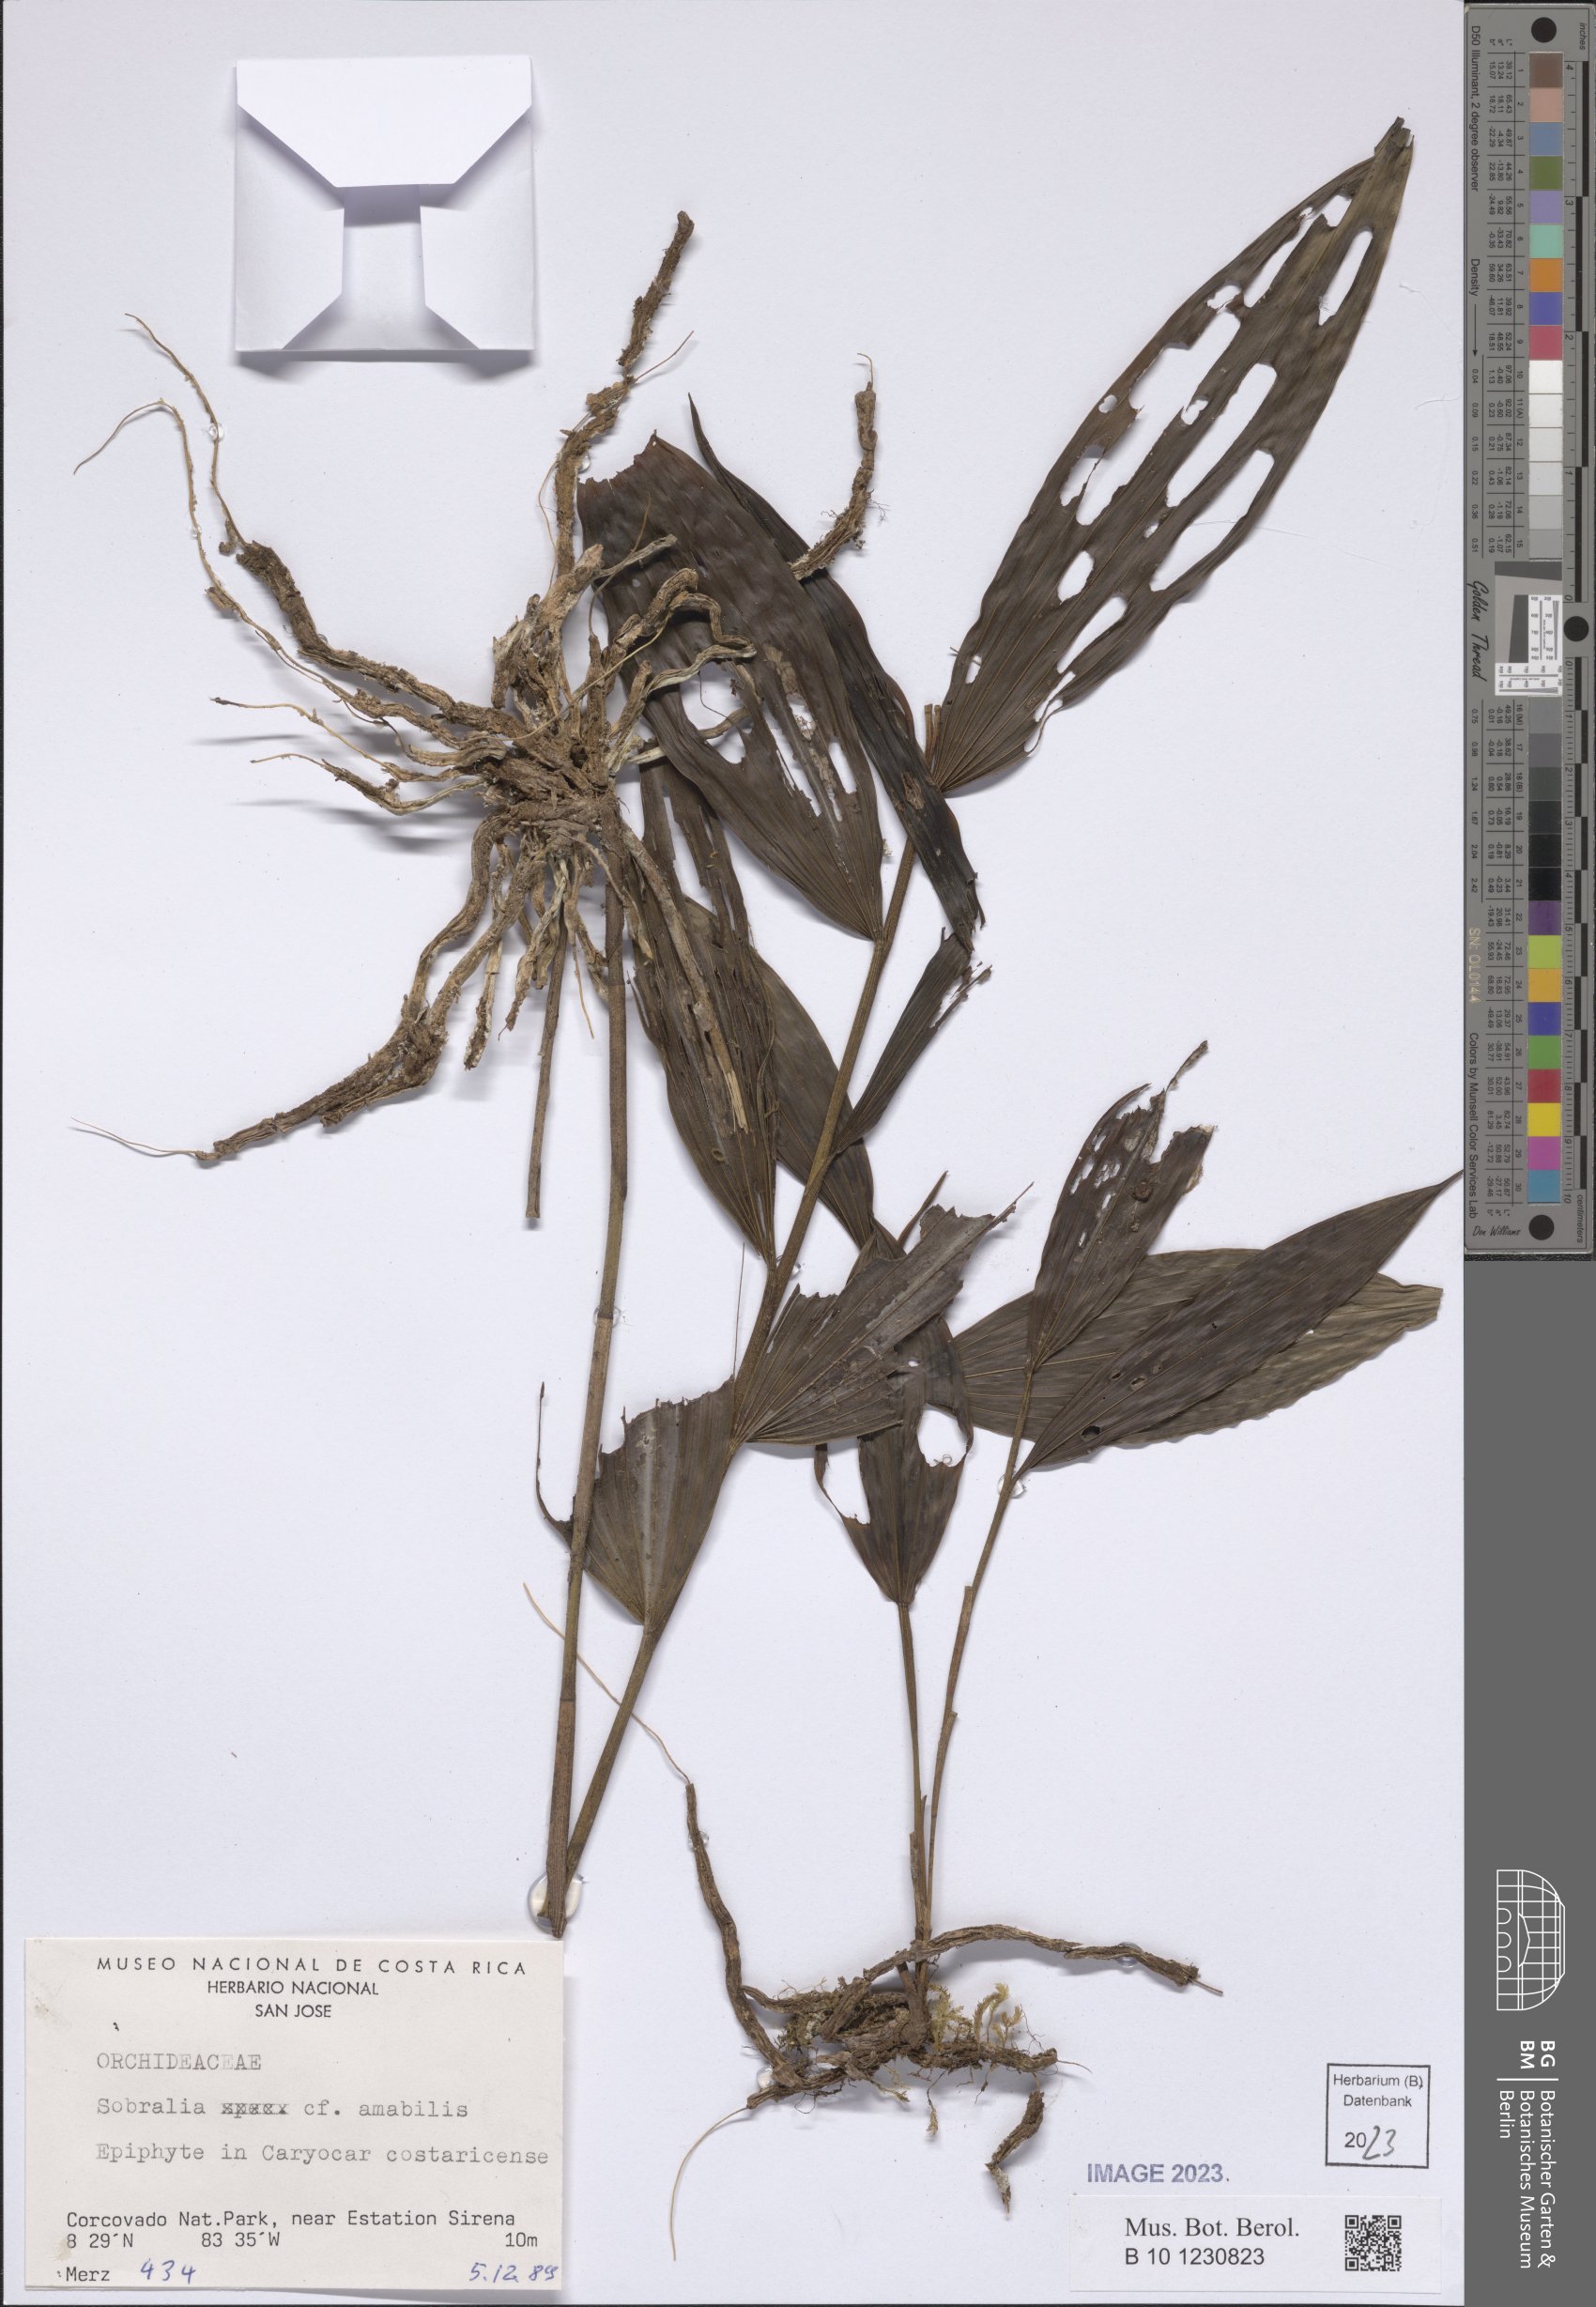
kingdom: Plantae
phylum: Tracheophyta
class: Liliopsida
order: Asparagales
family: Orchidaceae
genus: Sobralia
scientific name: Sobralia amabilis
